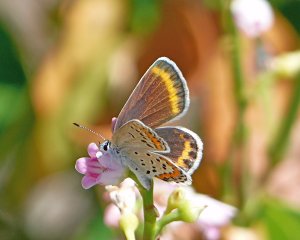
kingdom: Animalia
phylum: Arthropoda
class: Insecta
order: Lepidoptera
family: Lycaenidae
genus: Lycaeides
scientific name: Lycaeides melissa
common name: Melissa Blue
